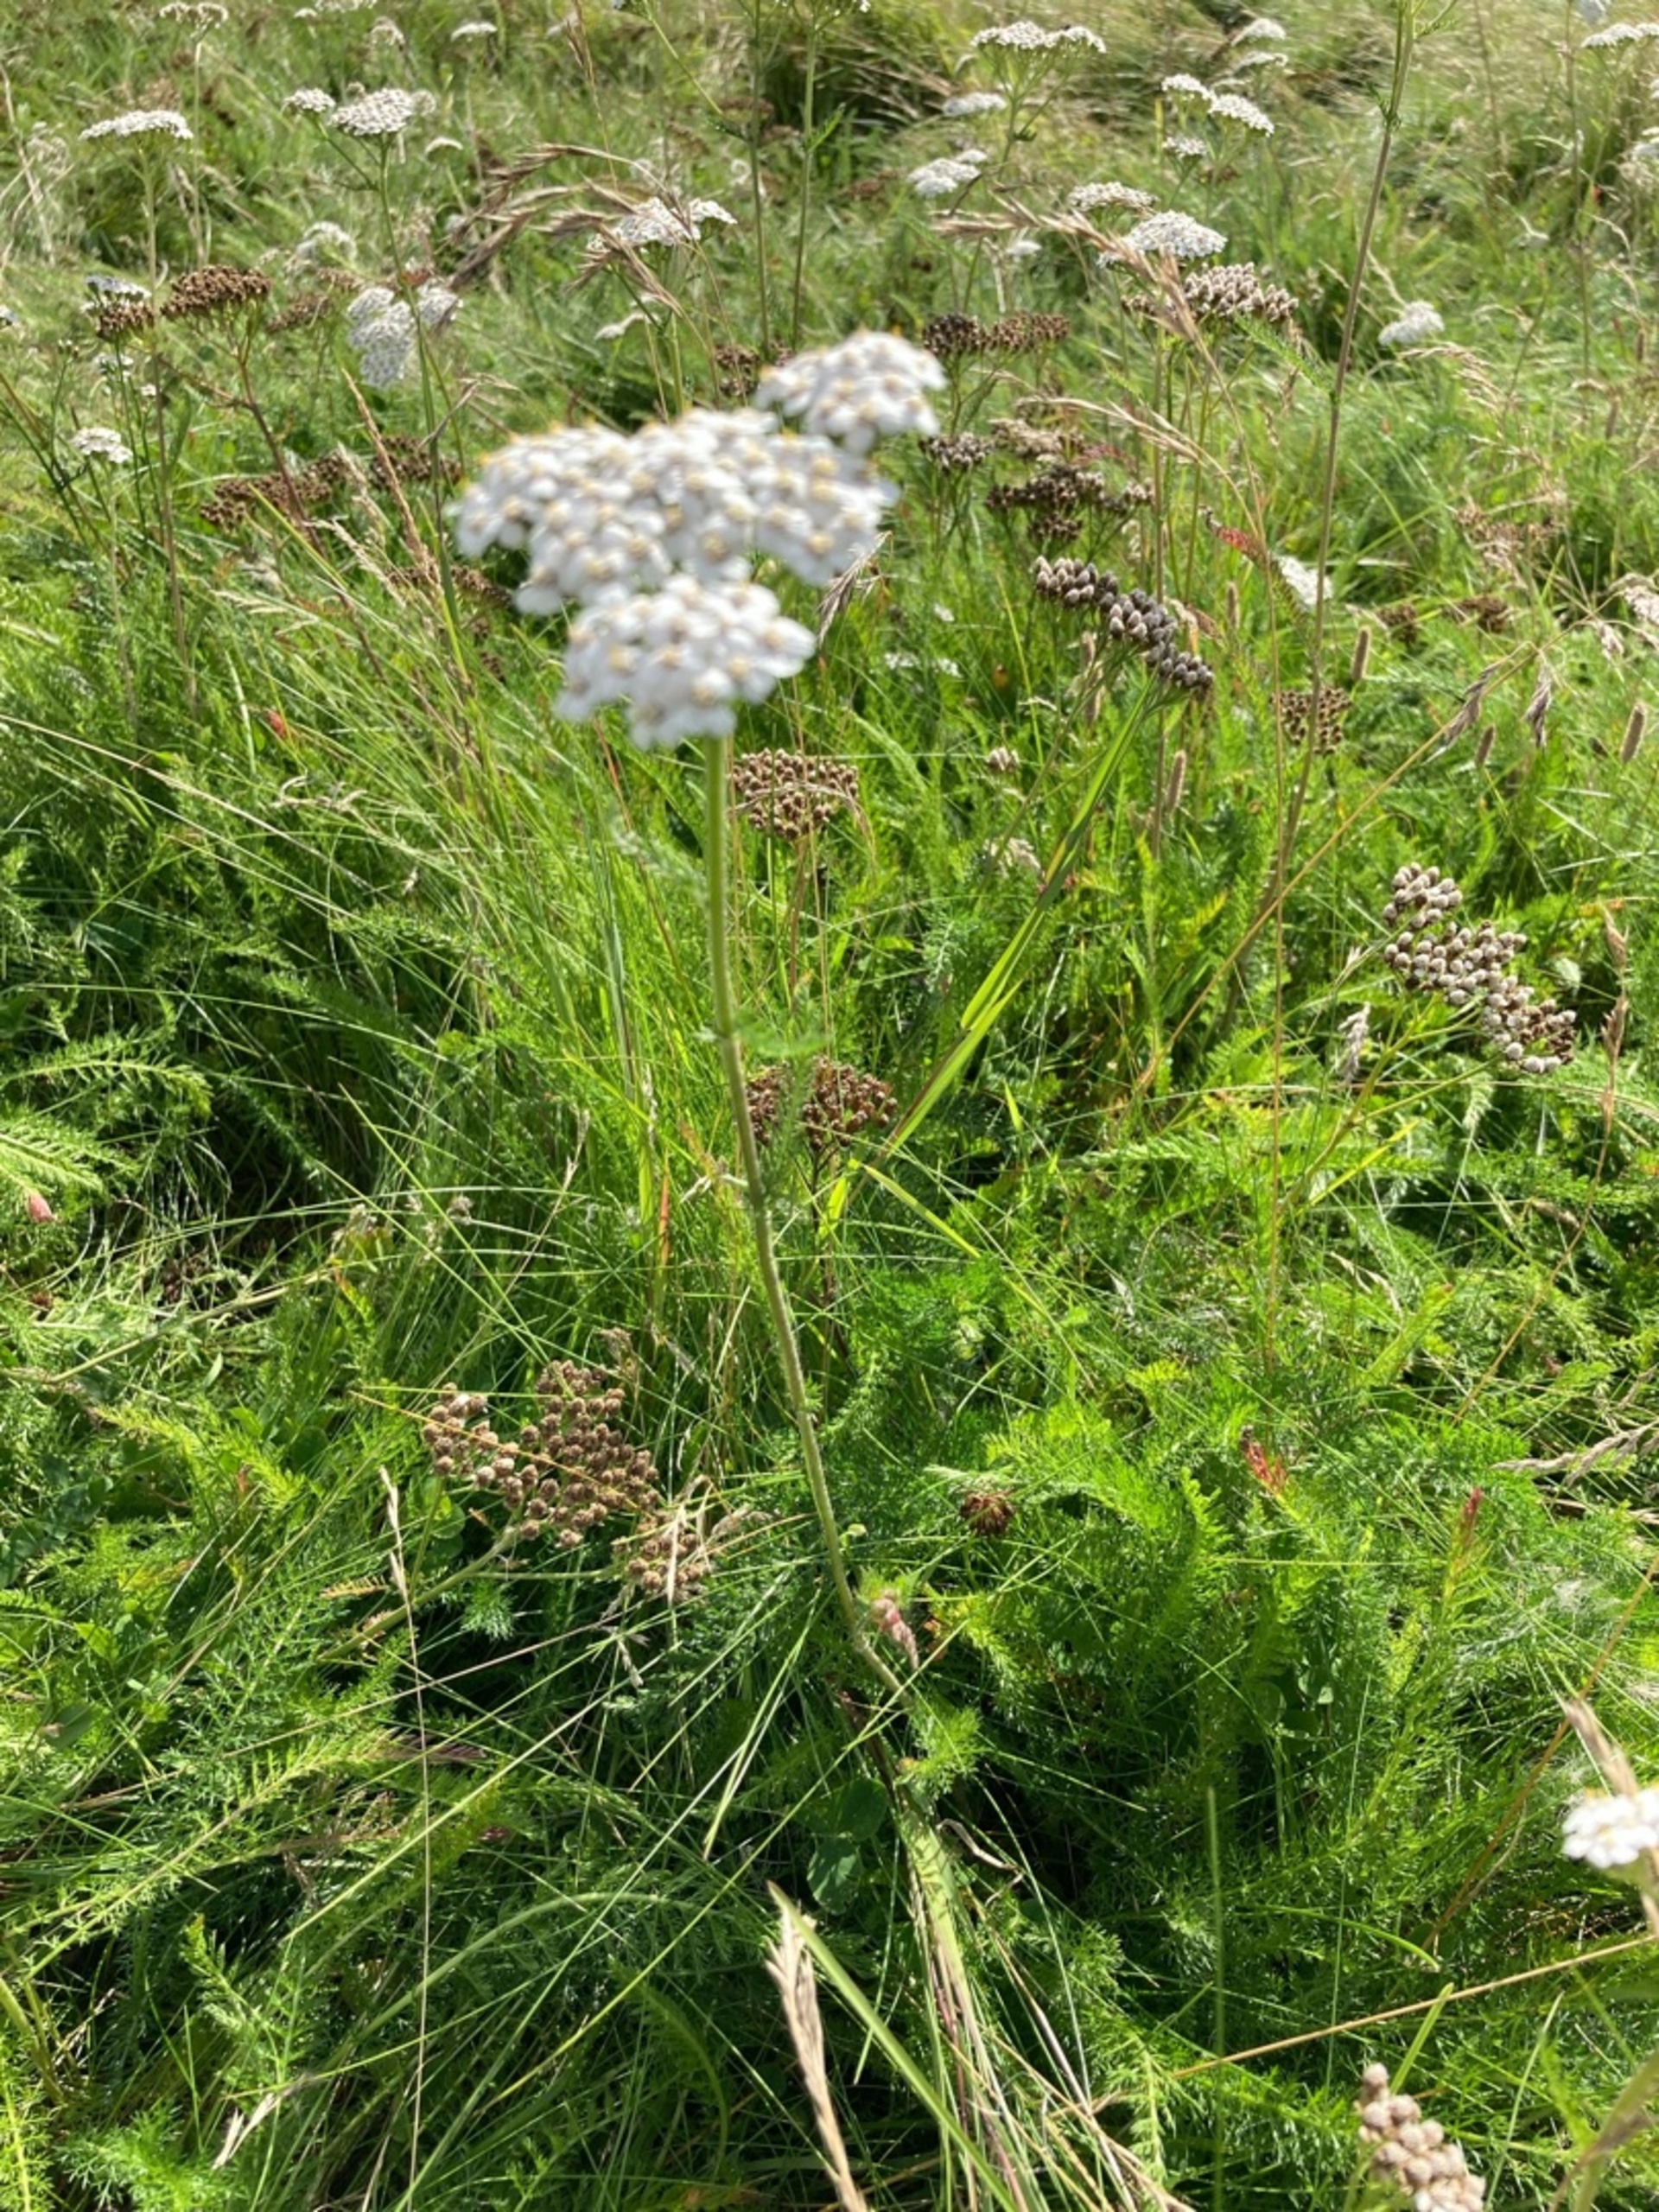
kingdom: Plantae
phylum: Tracheophyta
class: Magnoliopsida
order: Asterales
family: Asteraceae
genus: Achillea
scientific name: Achillea millefolium
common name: Almindelig røllike
